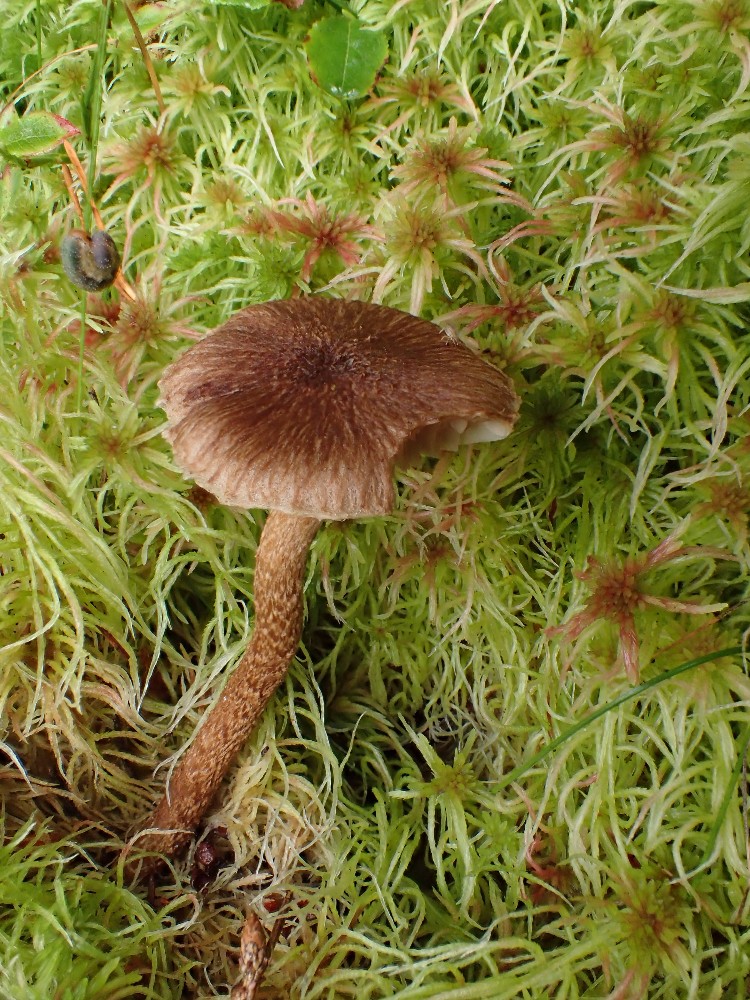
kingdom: Fungi
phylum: Basidiomycota
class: Agaricomycetes
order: Agaricales
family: Inocybaceae
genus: Inocybe
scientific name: Inocybe stellatospora
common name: spidsskællet trævlhat
